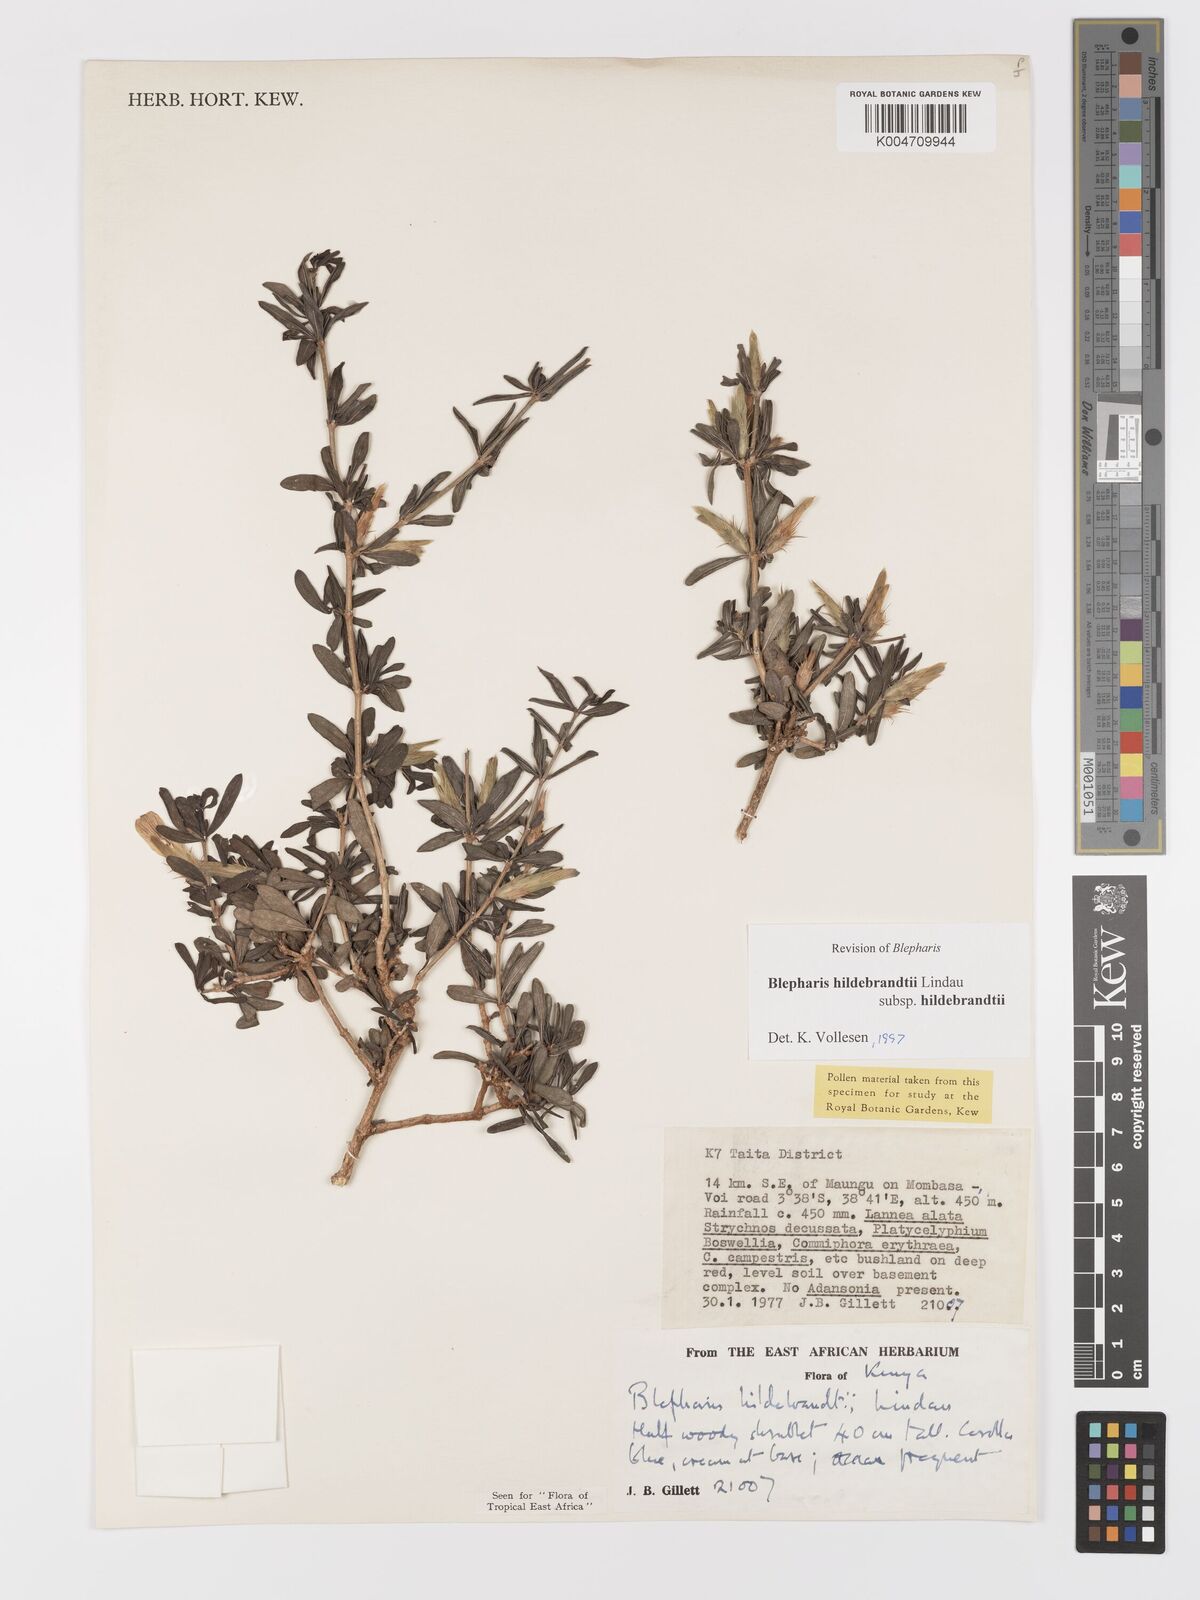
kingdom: Plantae
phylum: Tracheophyta
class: Magnoliopsida
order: Lamiales
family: Acanthaceae
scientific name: Acanthaceae
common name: Acanthaceae
